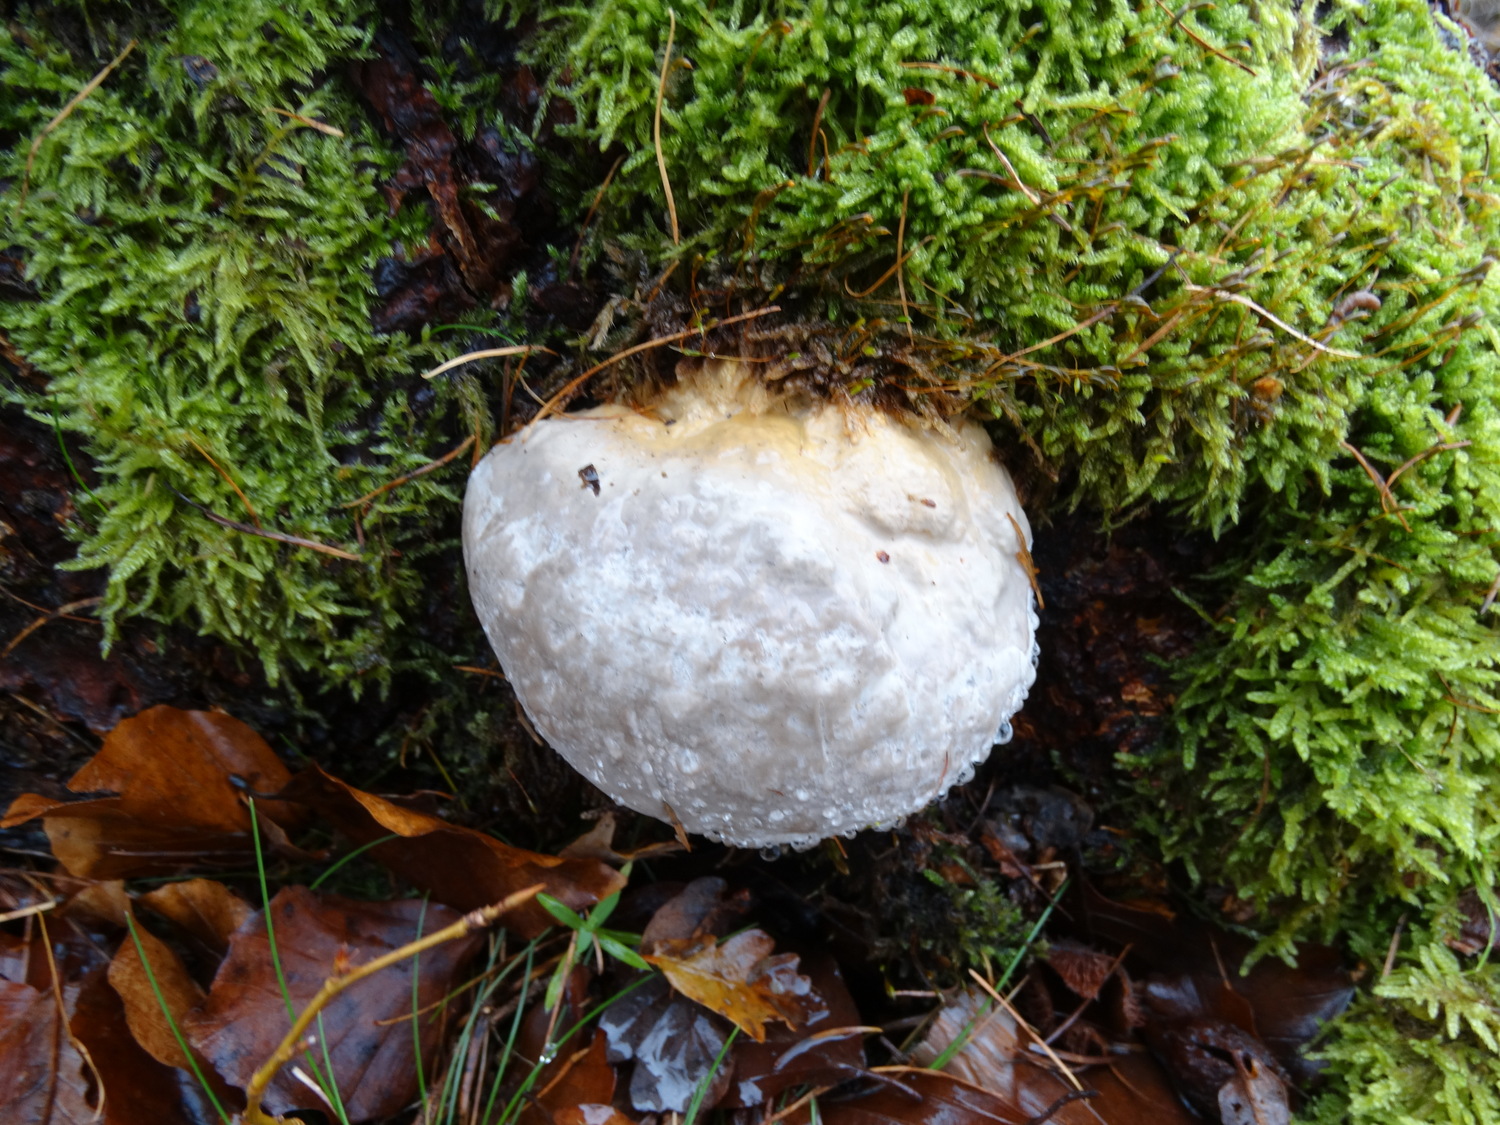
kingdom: Fungi
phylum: Basidiomycota
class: Agaricomycetes
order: Polyporales
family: Fomitopsidaceae
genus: Fomitopsis
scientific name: Fomitopsis pinicola
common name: randbæltet hovporesvamp
